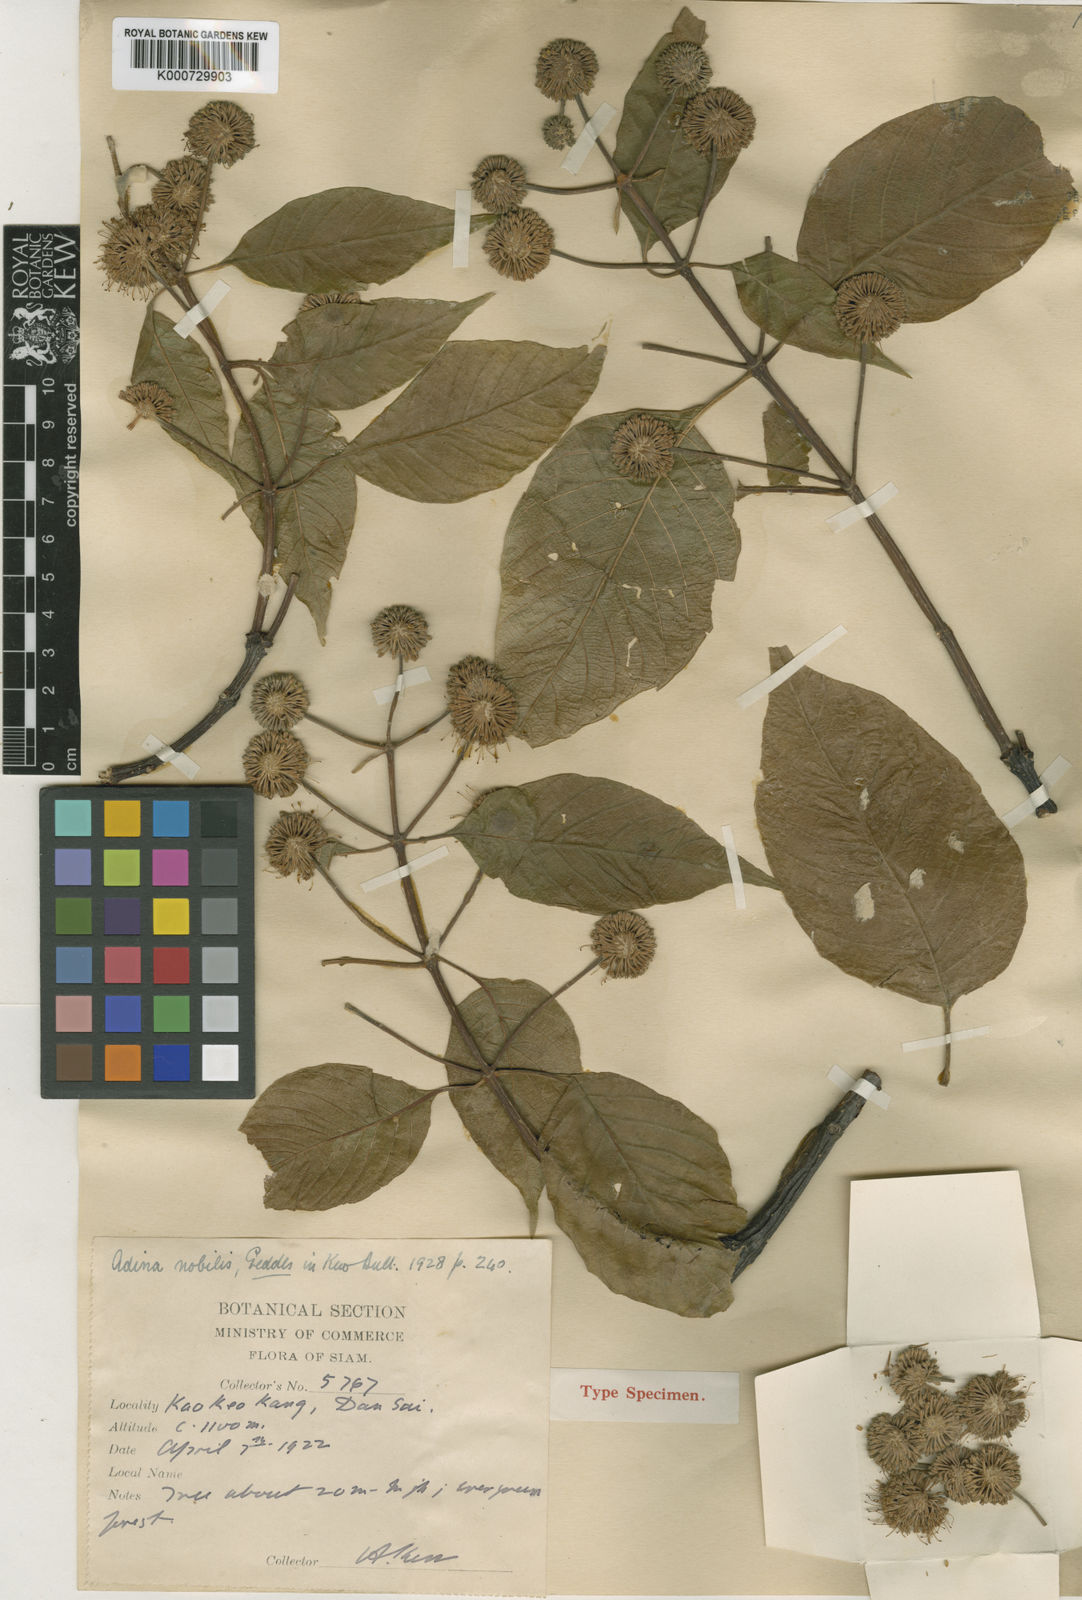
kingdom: Plantae
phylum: Tracheophyta
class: Magnoliopsida
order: Gentianales
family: Rubiaceae
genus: Adina
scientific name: Adina racemosa
